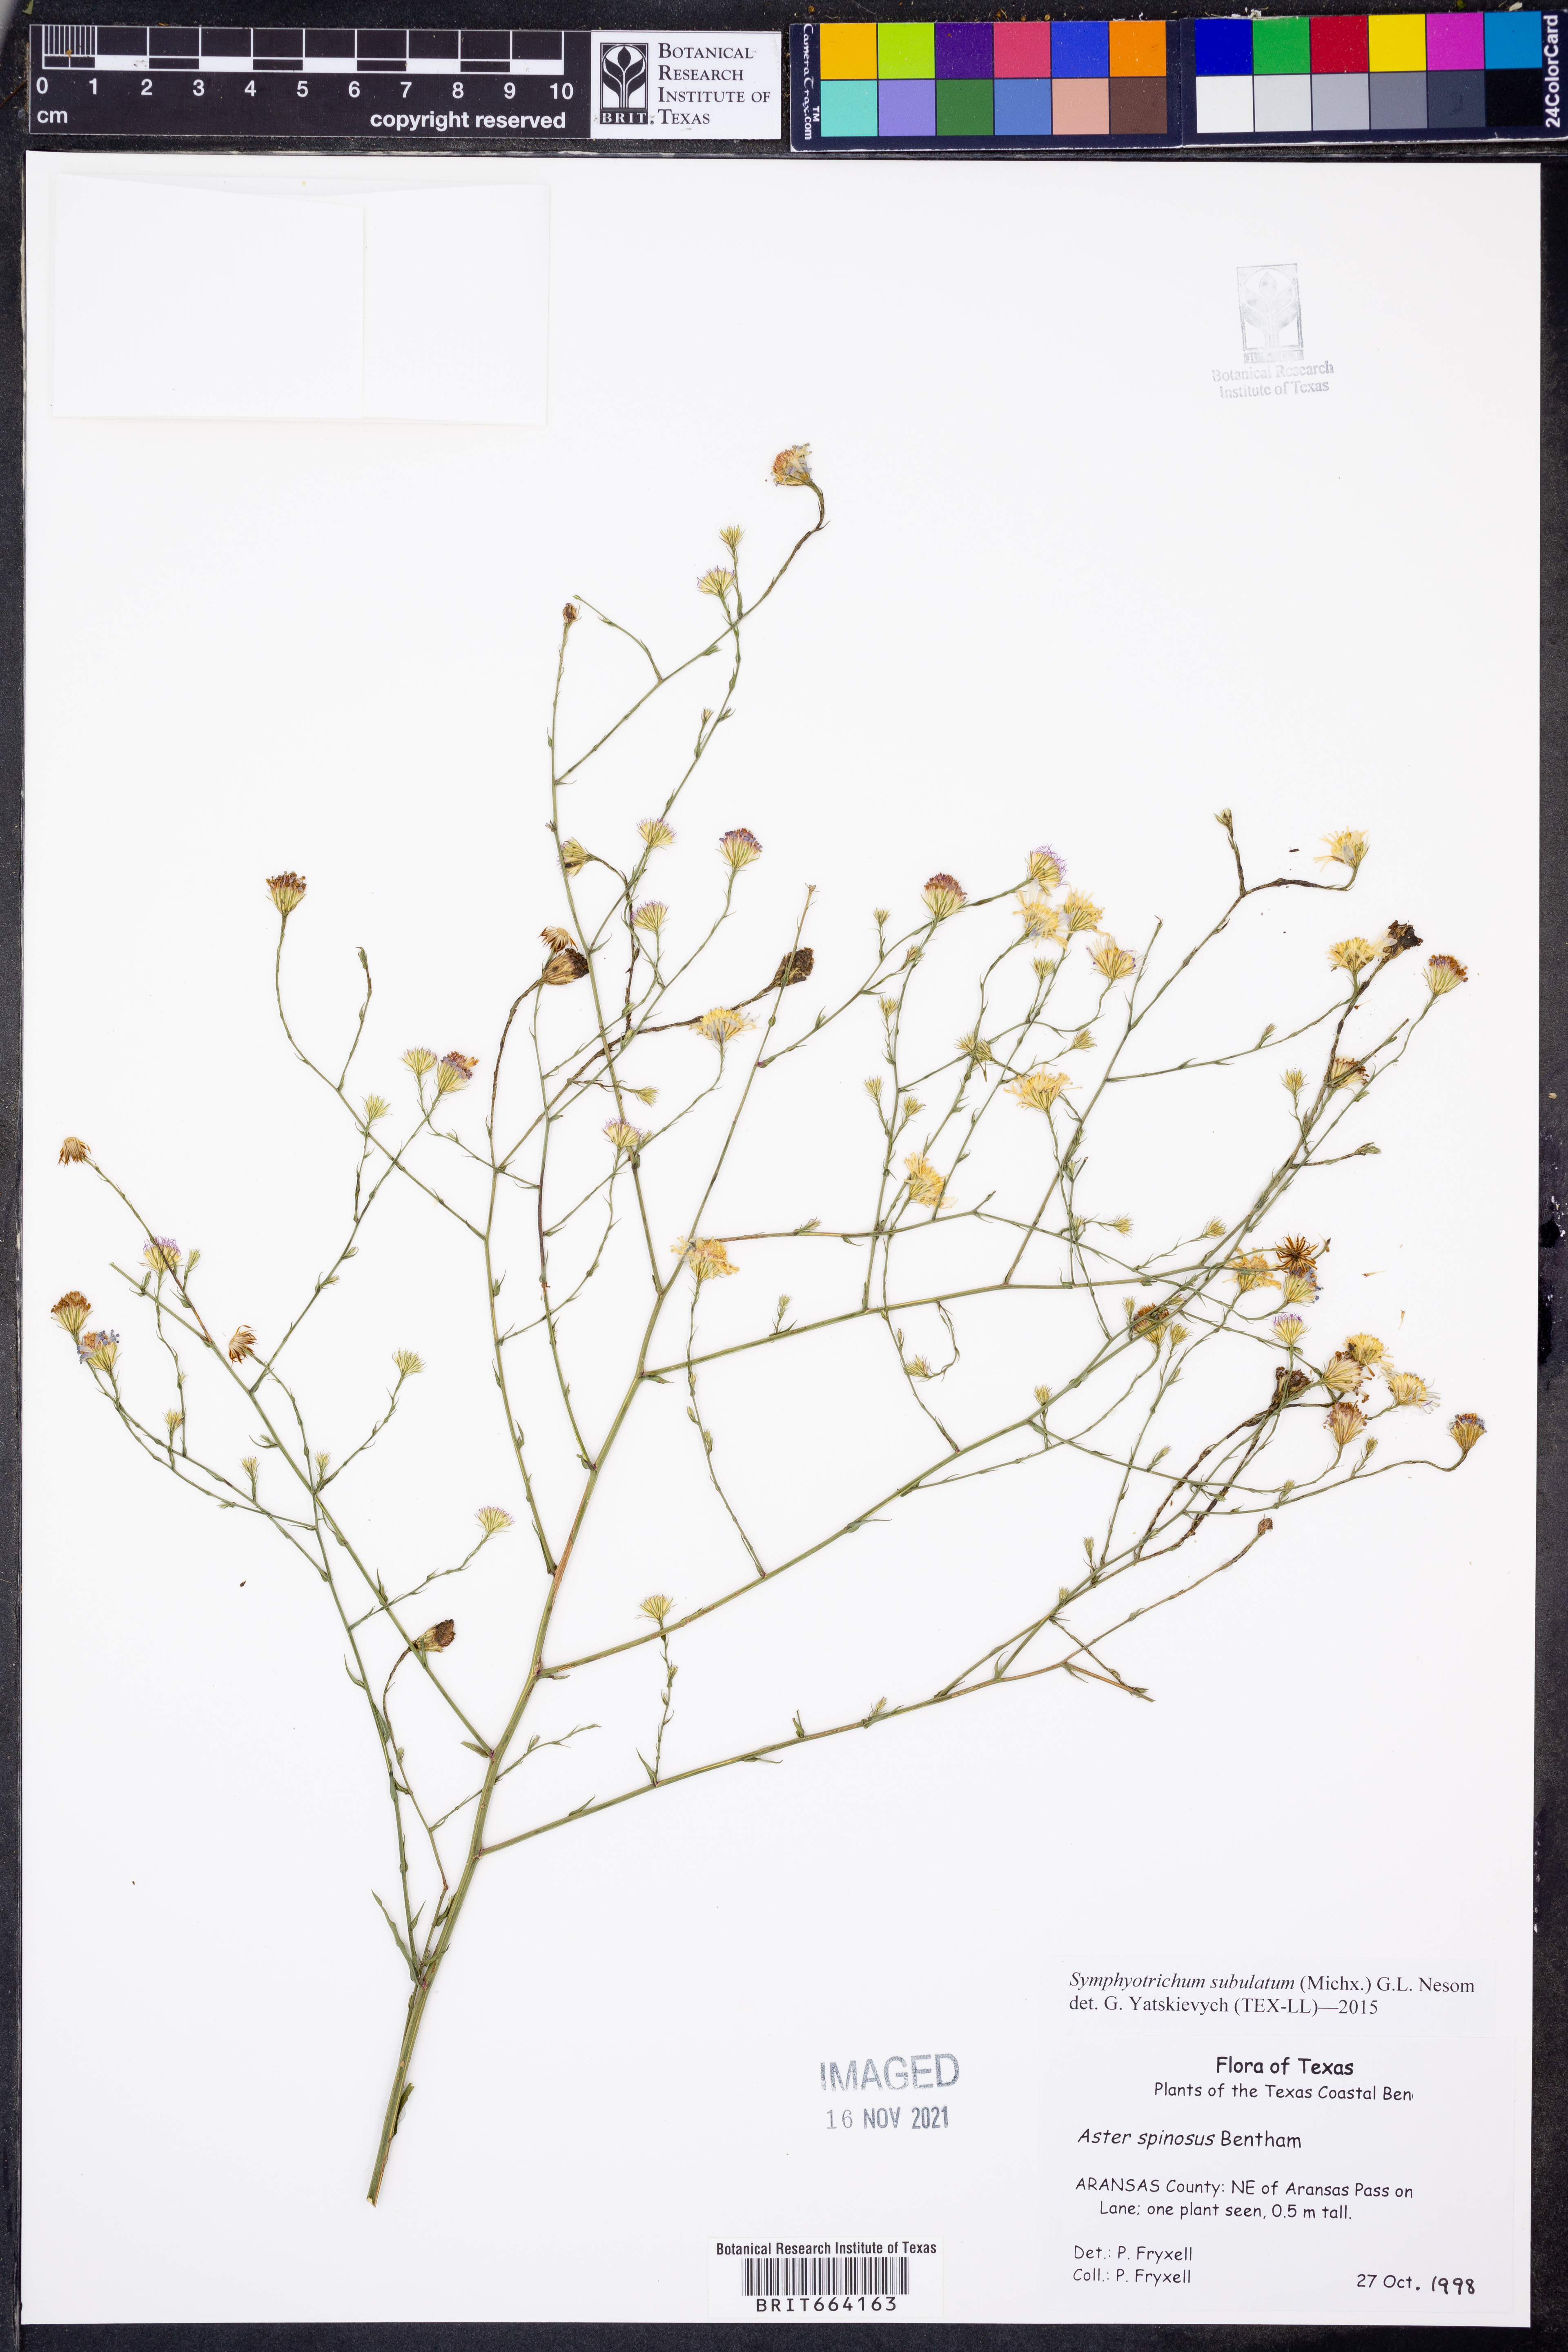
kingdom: Plantae
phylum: Tracheophyta
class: Magnoliopsida
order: Asterales
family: Asteraceae
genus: Symphyotrichum
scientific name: Symphyotrichum subulatum
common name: Annual saltmarsh aster
